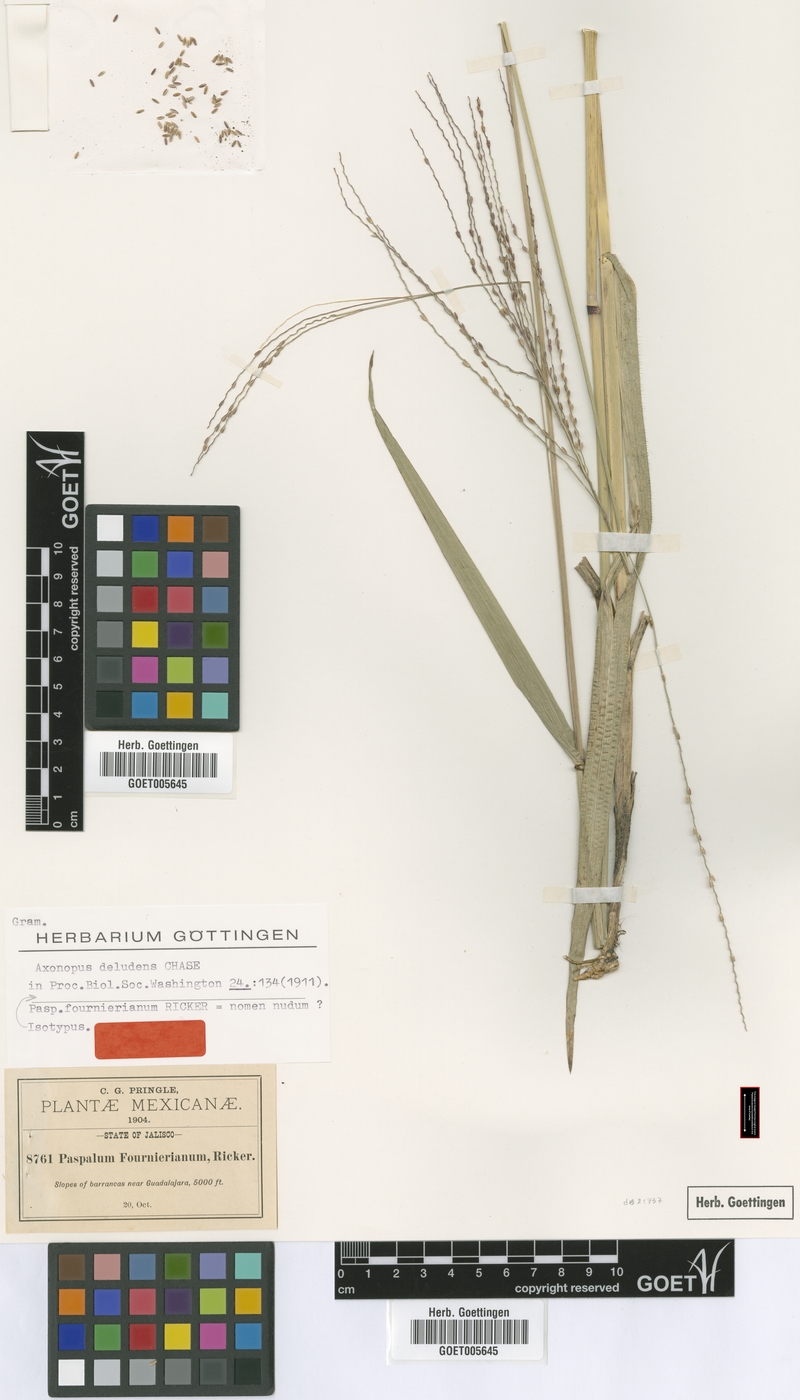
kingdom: Plantae
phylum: Tracheophyta
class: Liliopsida
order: Poales
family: Poaceae
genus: Axonopus
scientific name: Axonopus scoparius
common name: Imperial grass
